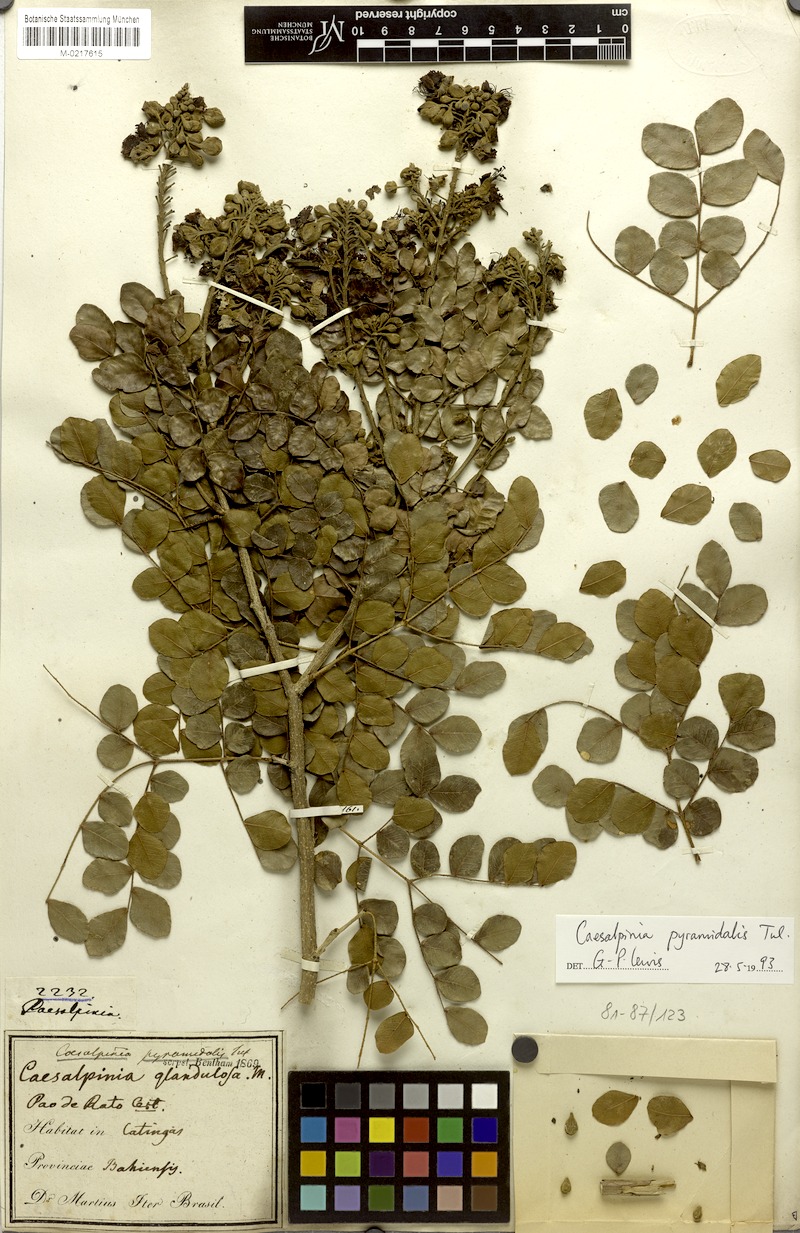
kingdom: Plantae
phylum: Tracheophyta
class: Magnoliopsida
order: Fabales
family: Fabaceae
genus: Cenostigma
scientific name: Cenostigma pyramidale
